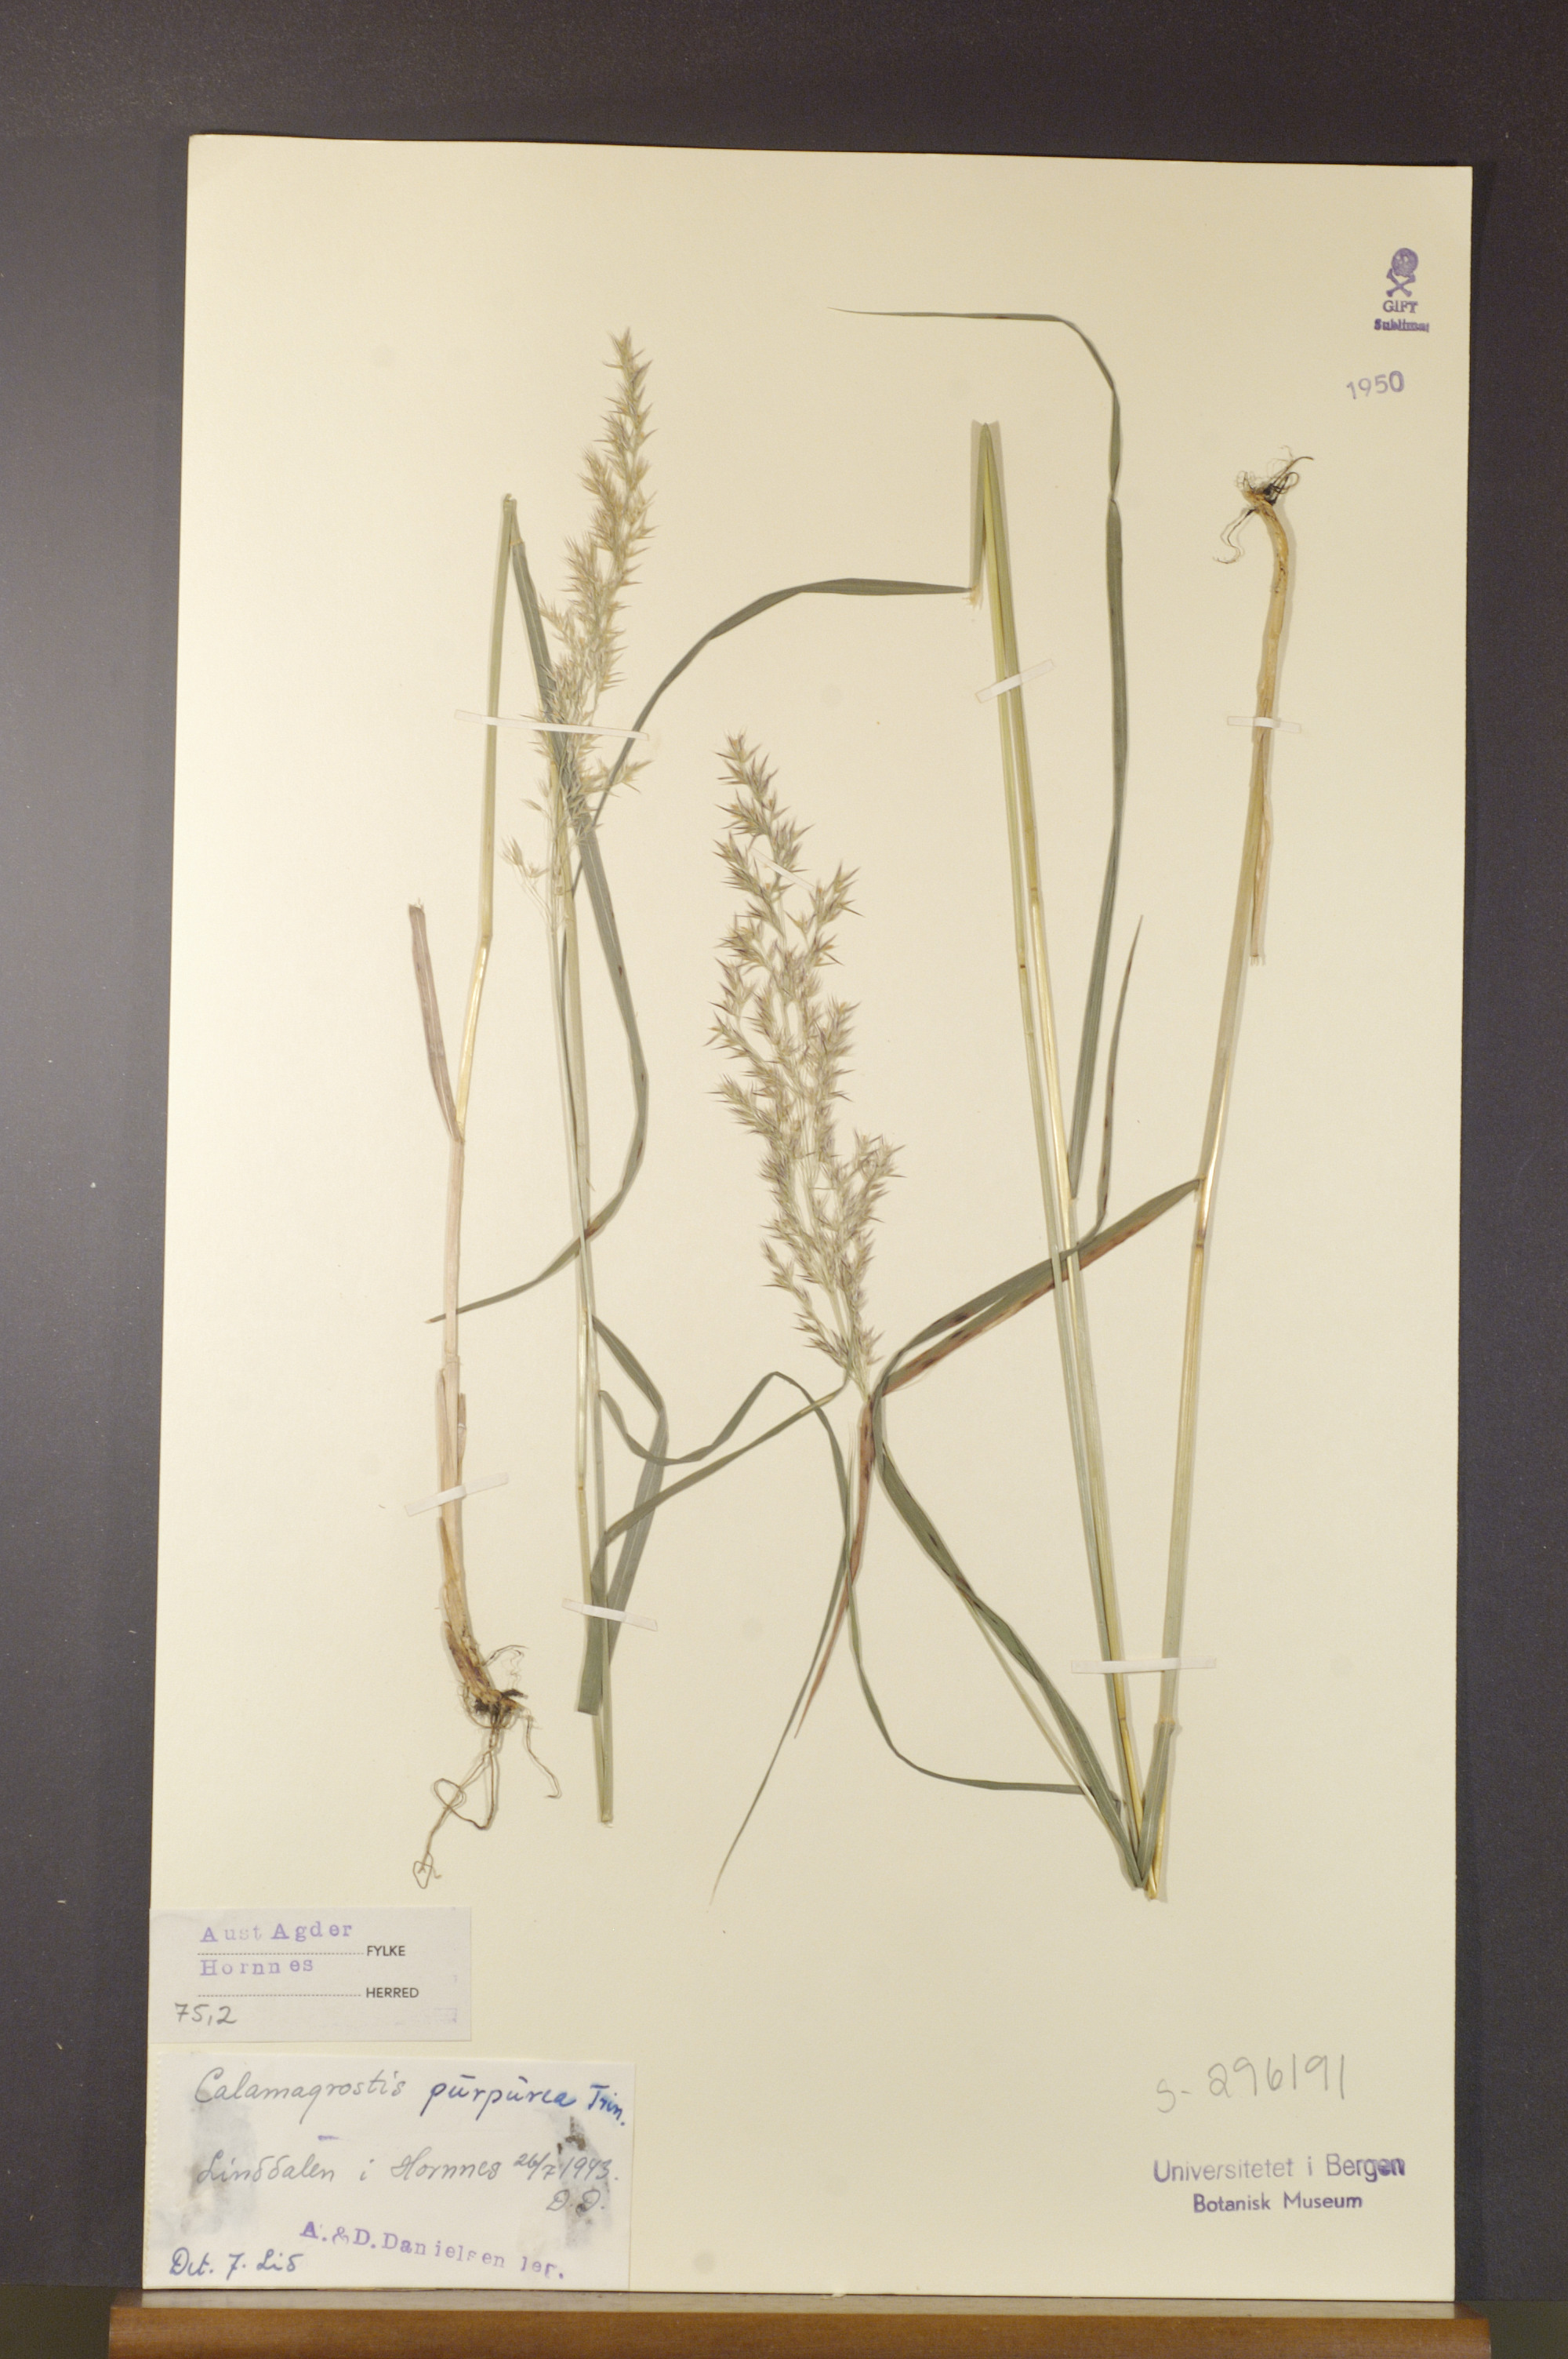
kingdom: Plantae
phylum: Tracheophyta
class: Liliopsida
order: Poales
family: Poaceae
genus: Calamagrostis
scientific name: Calamagrostis purpurea
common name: Scandinavian small-reed
